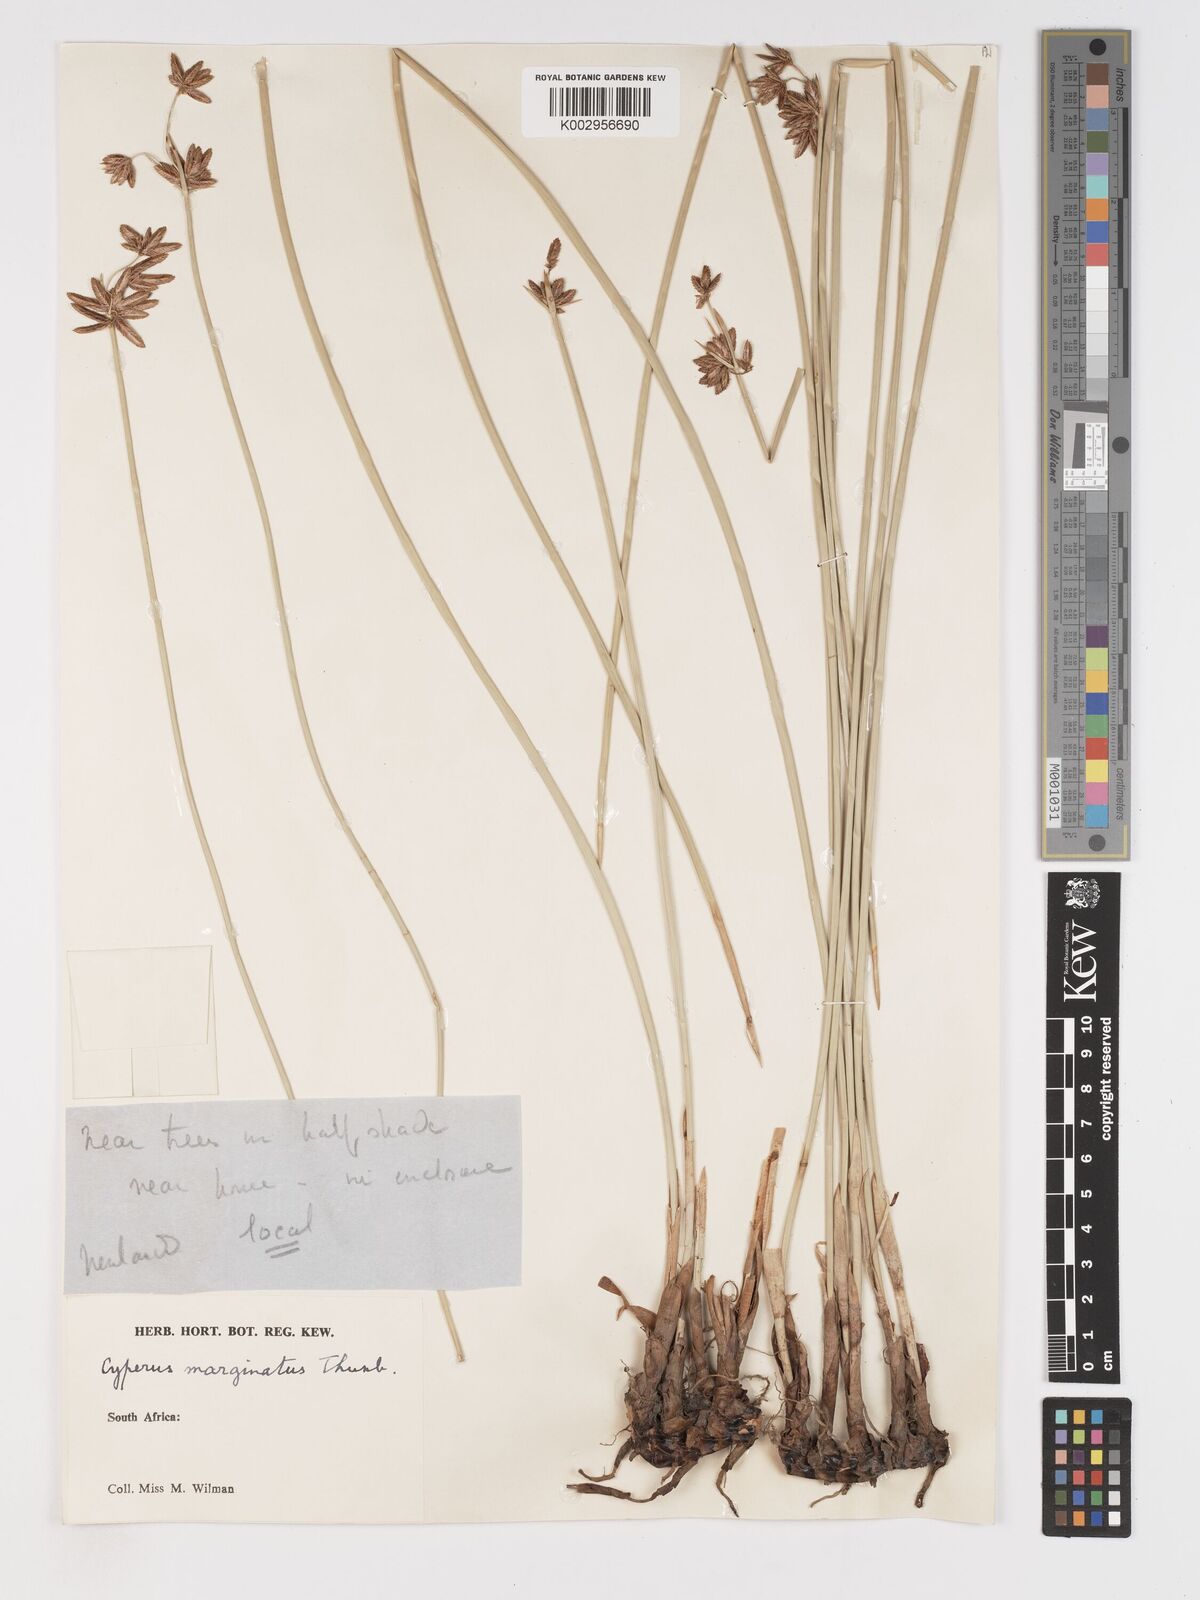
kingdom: Plantae
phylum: Tracheophyta
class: Liliopsida
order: Poales
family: Cyperaceae
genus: Cyperus
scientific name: Cyperus marginatus
